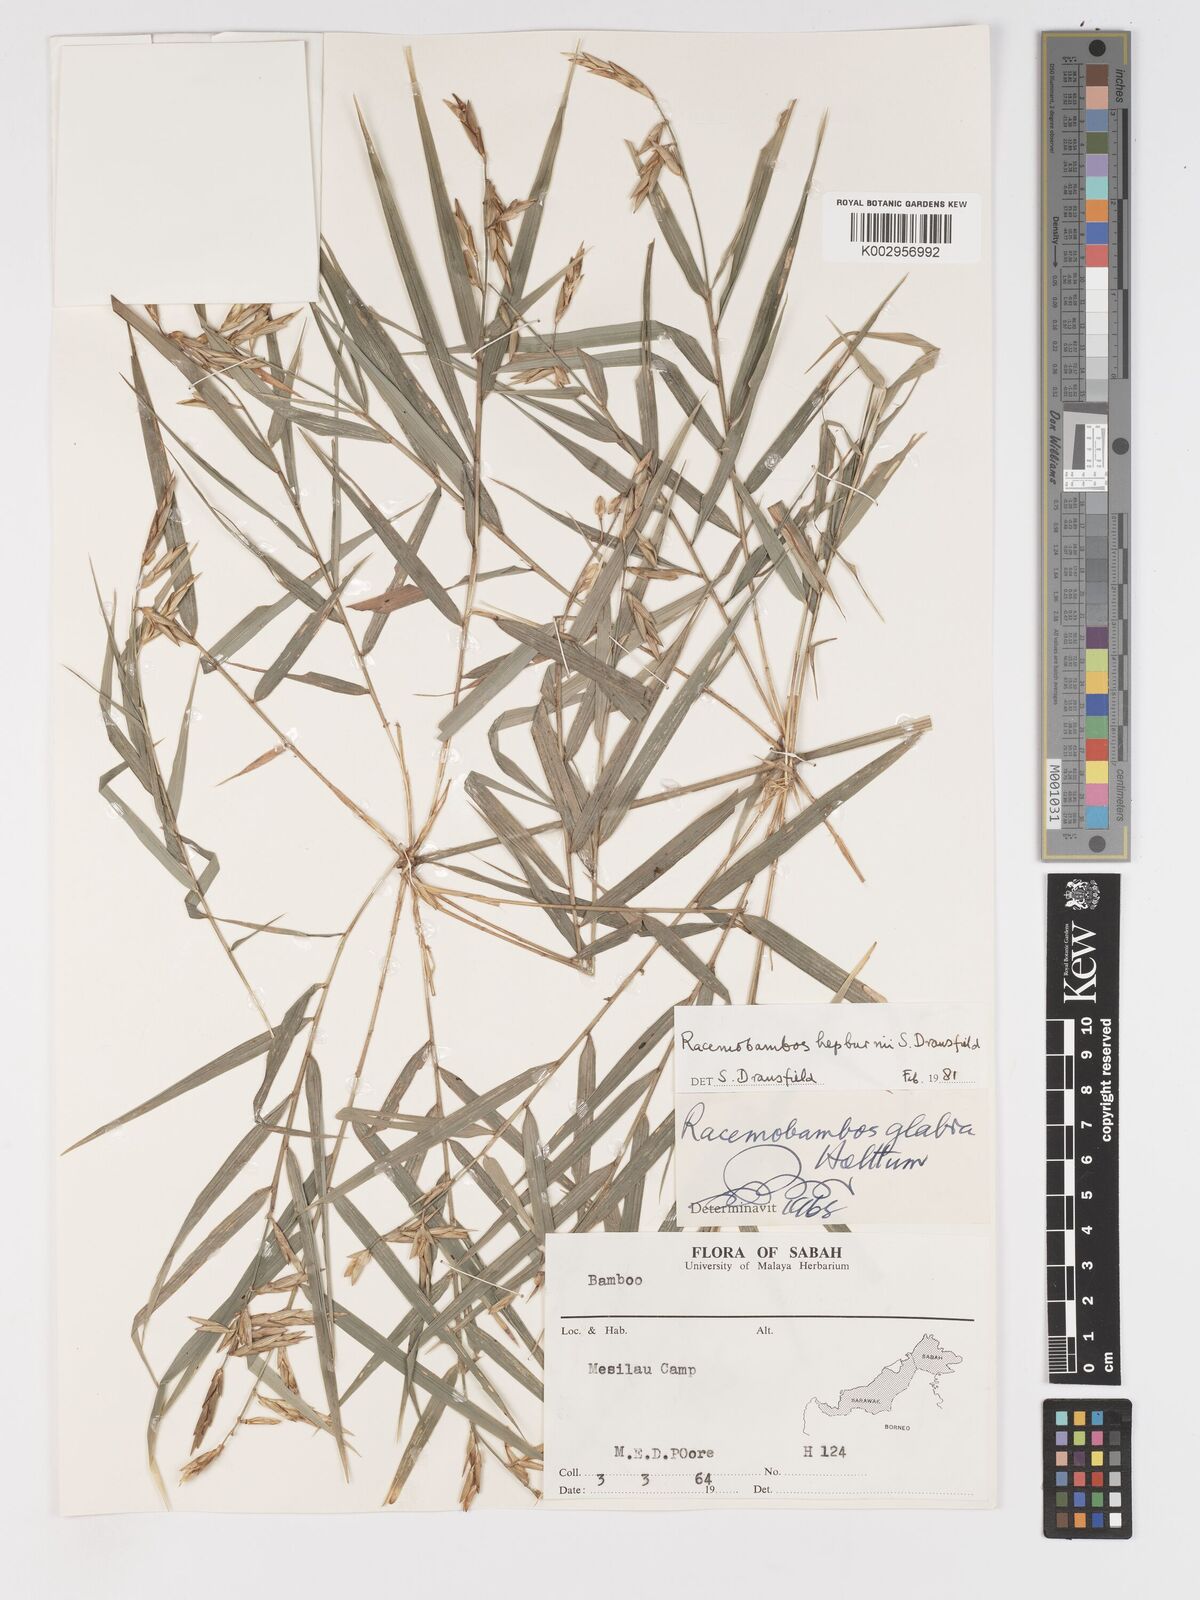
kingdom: Plantae
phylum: Tracheophyta
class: Liliopsida
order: Poales
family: Poaceae
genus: Racemobambos
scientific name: Racemobambos
